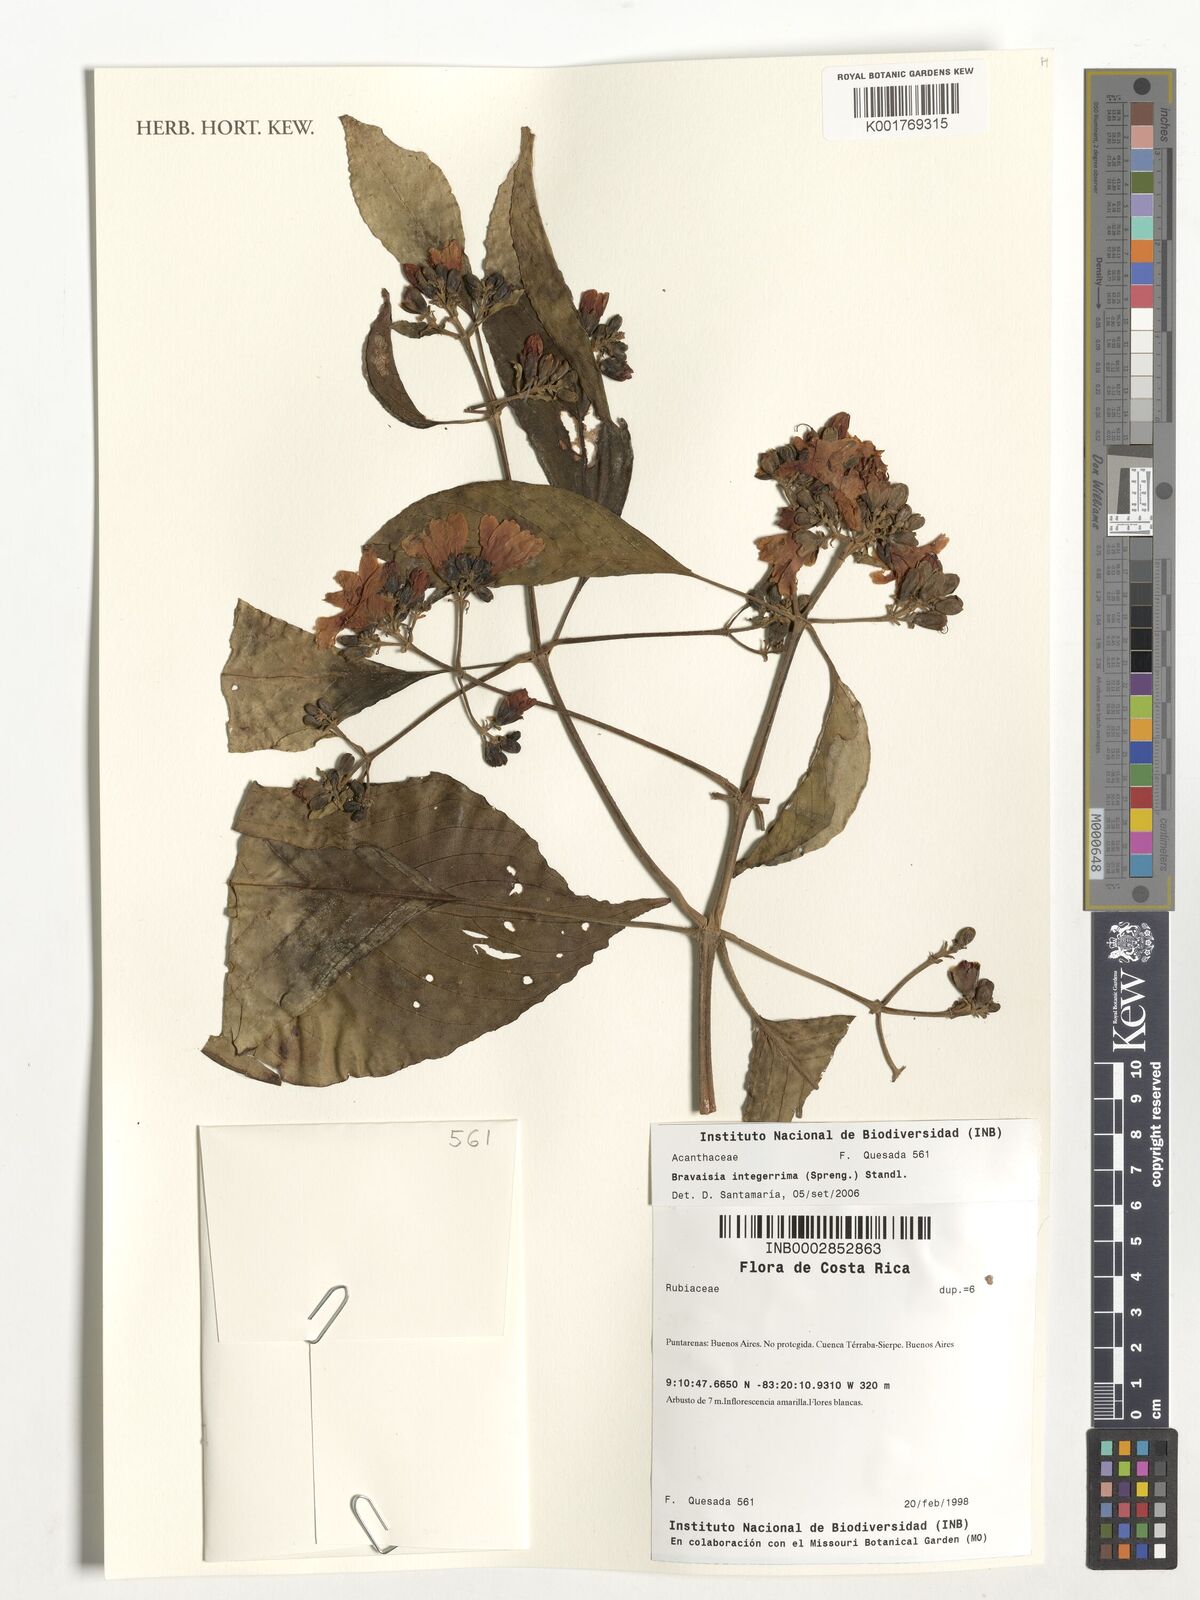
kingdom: Plantae
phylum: Tracheophyta
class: Magnoliopsida
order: Lamiales
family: Acanthaceae
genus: Bravaisia
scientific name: Bravaisia integerrima
